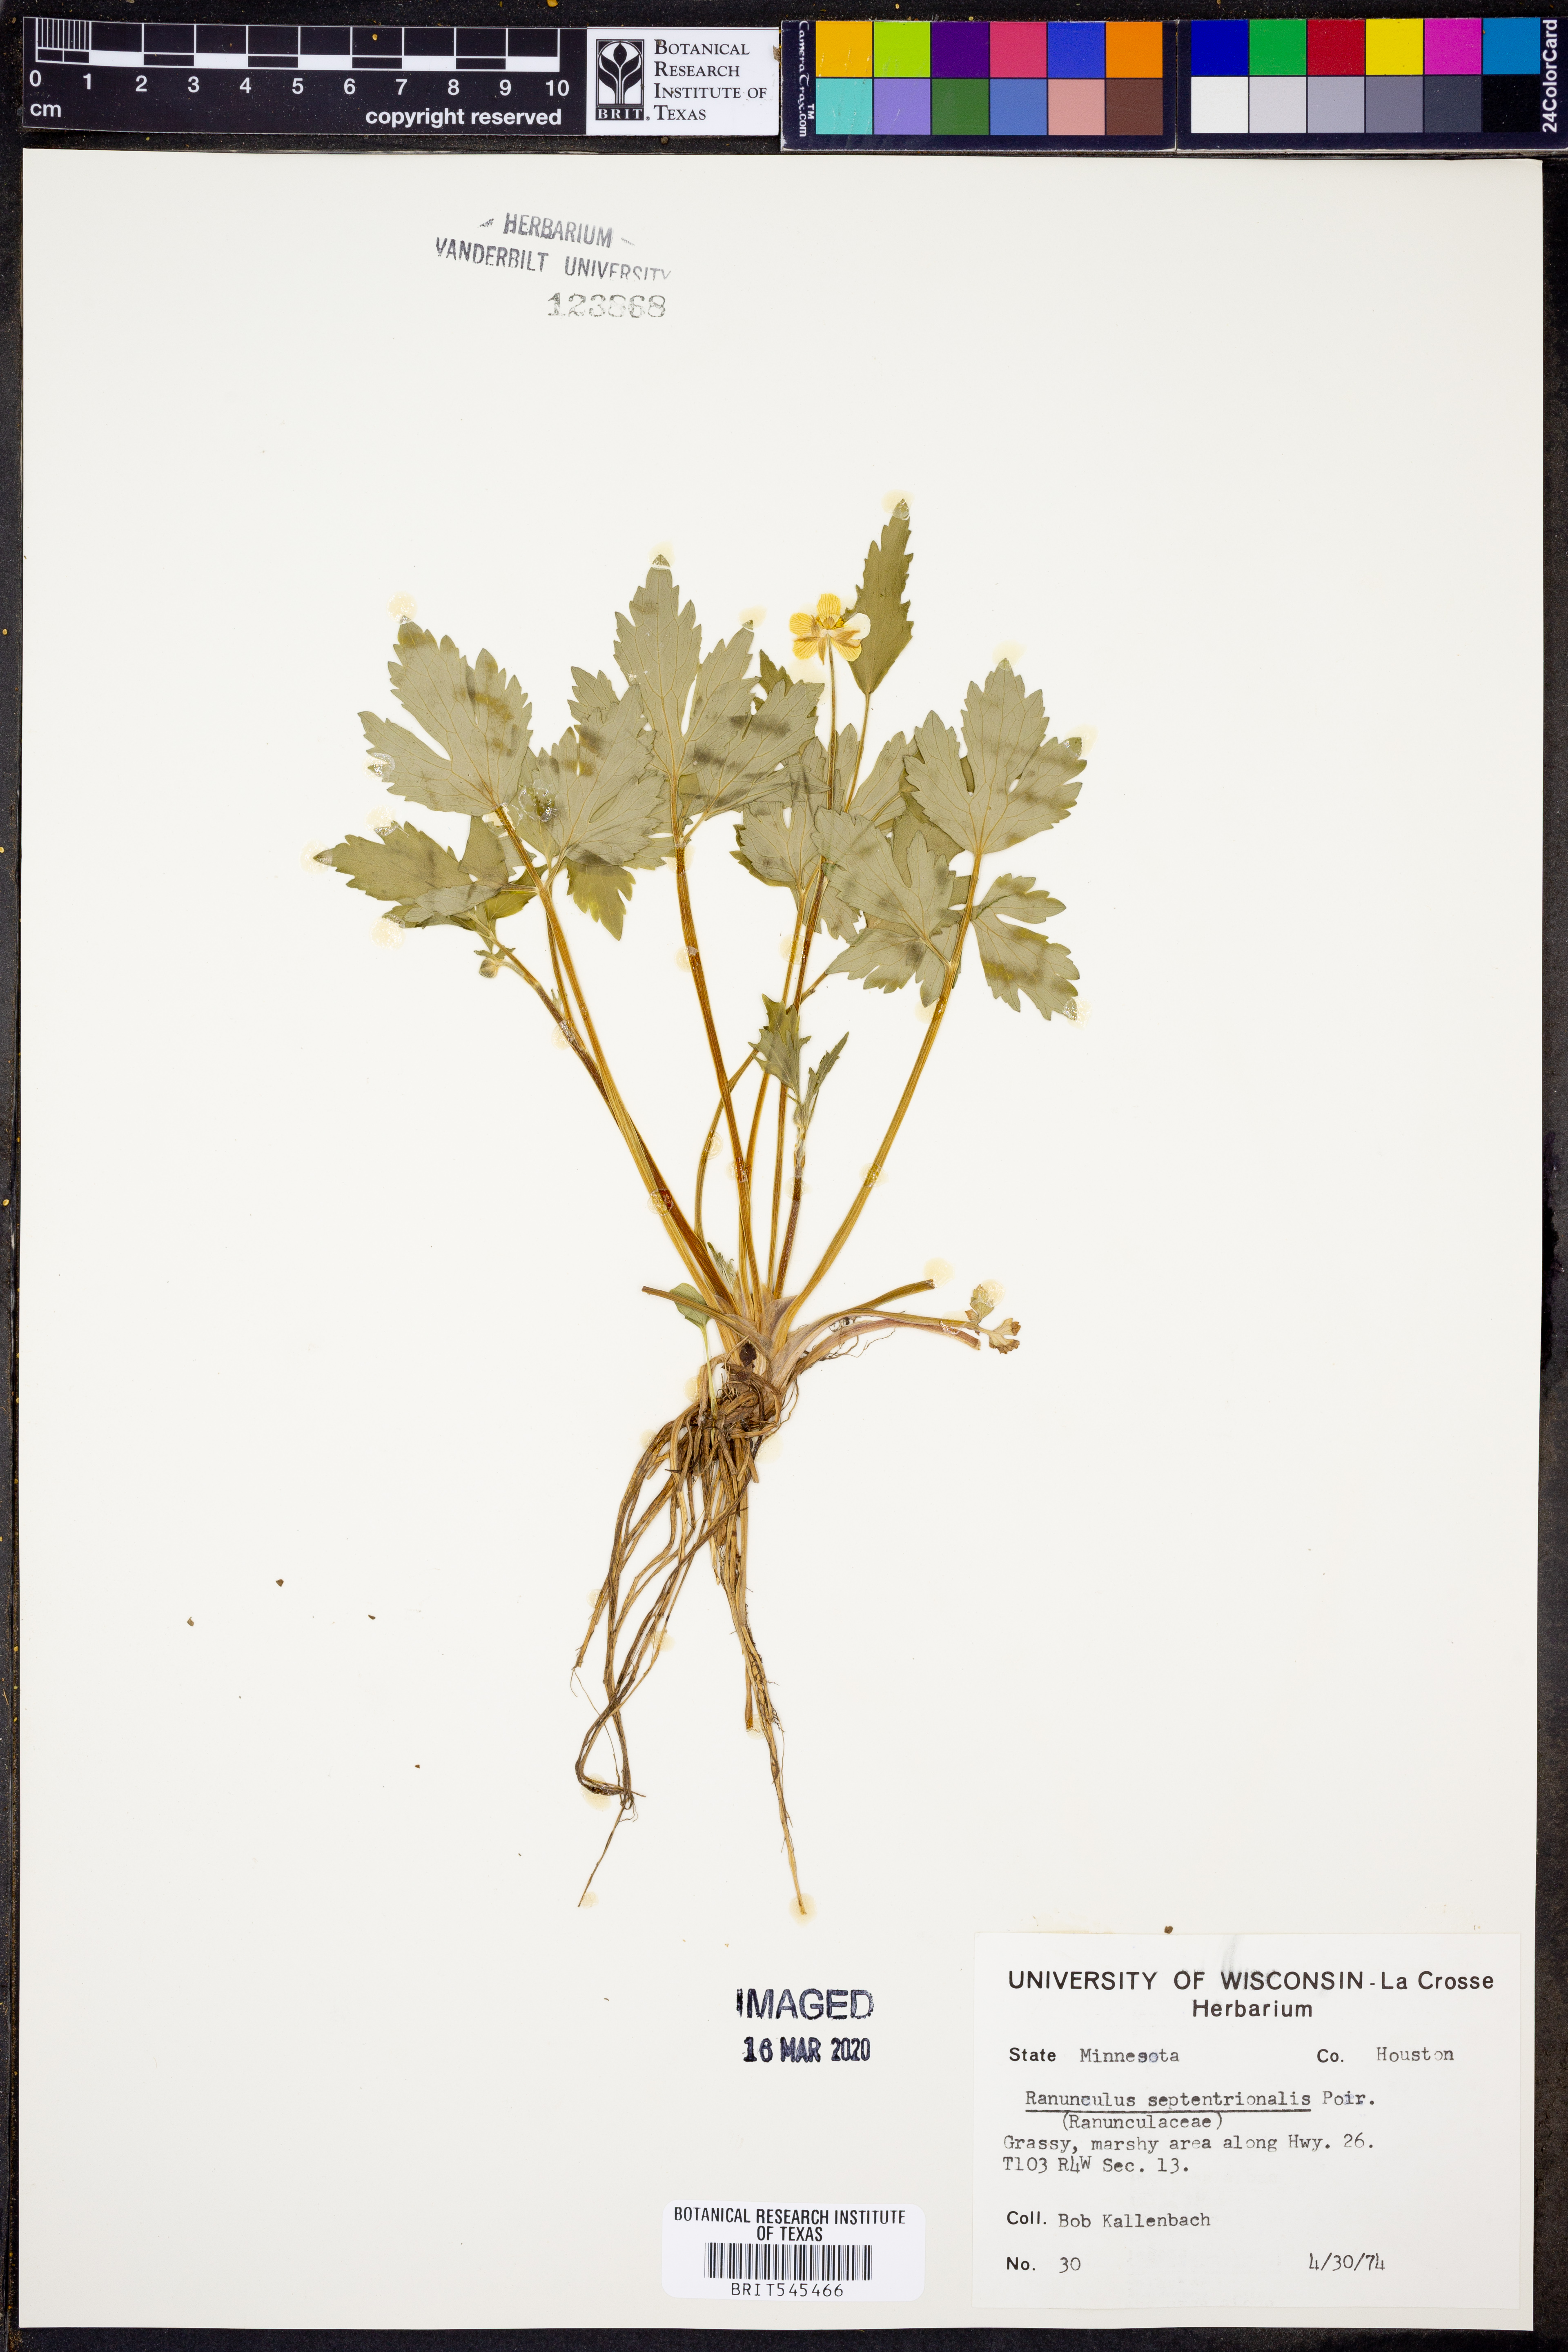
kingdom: Plantae
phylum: Tracheophyta
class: Magnoliopsida
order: Ranunculales
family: Ranunculaceae
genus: Ranunculus
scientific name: Ranunculus hispidus
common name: Bristly buttercup
